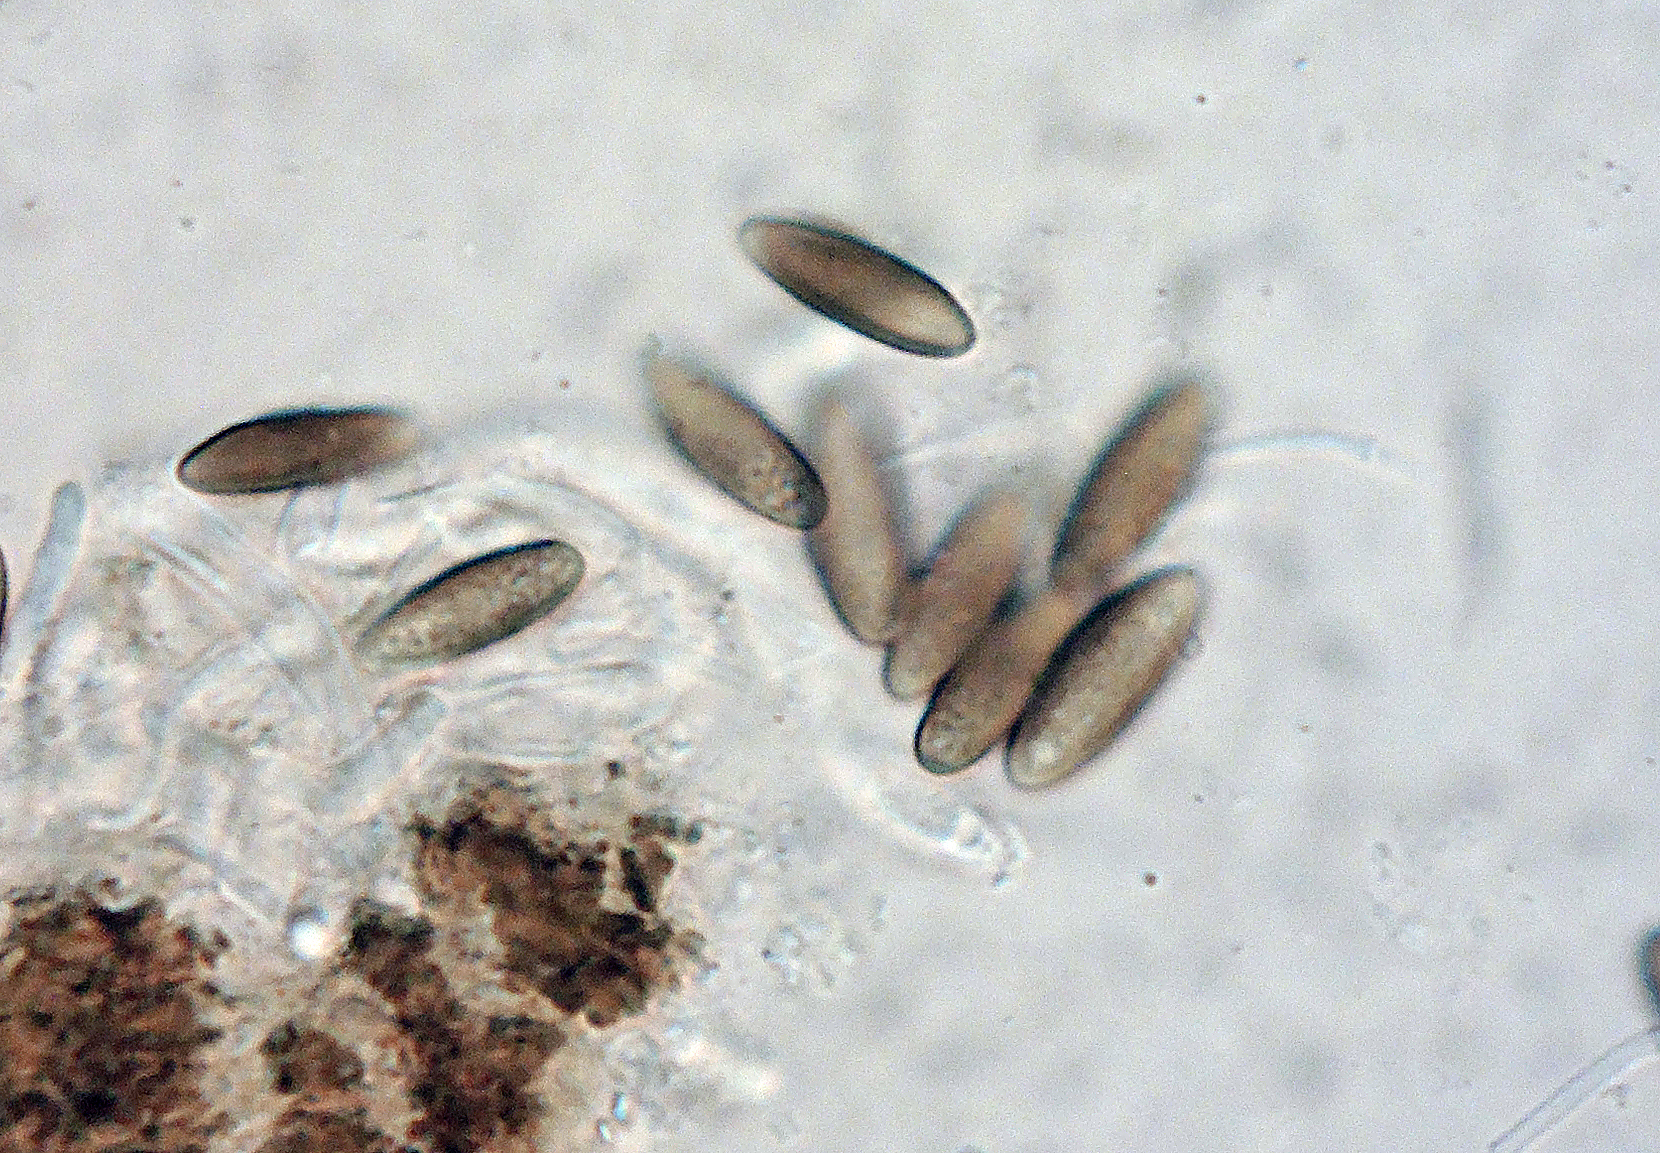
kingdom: Fungi
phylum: Ascomycota
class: Eurotiomycetes
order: Mycocaliciales
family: Mycocaliciaceae
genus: Stenocybe
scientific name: Stenocybe pullatula
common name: elle-nålesvamp
